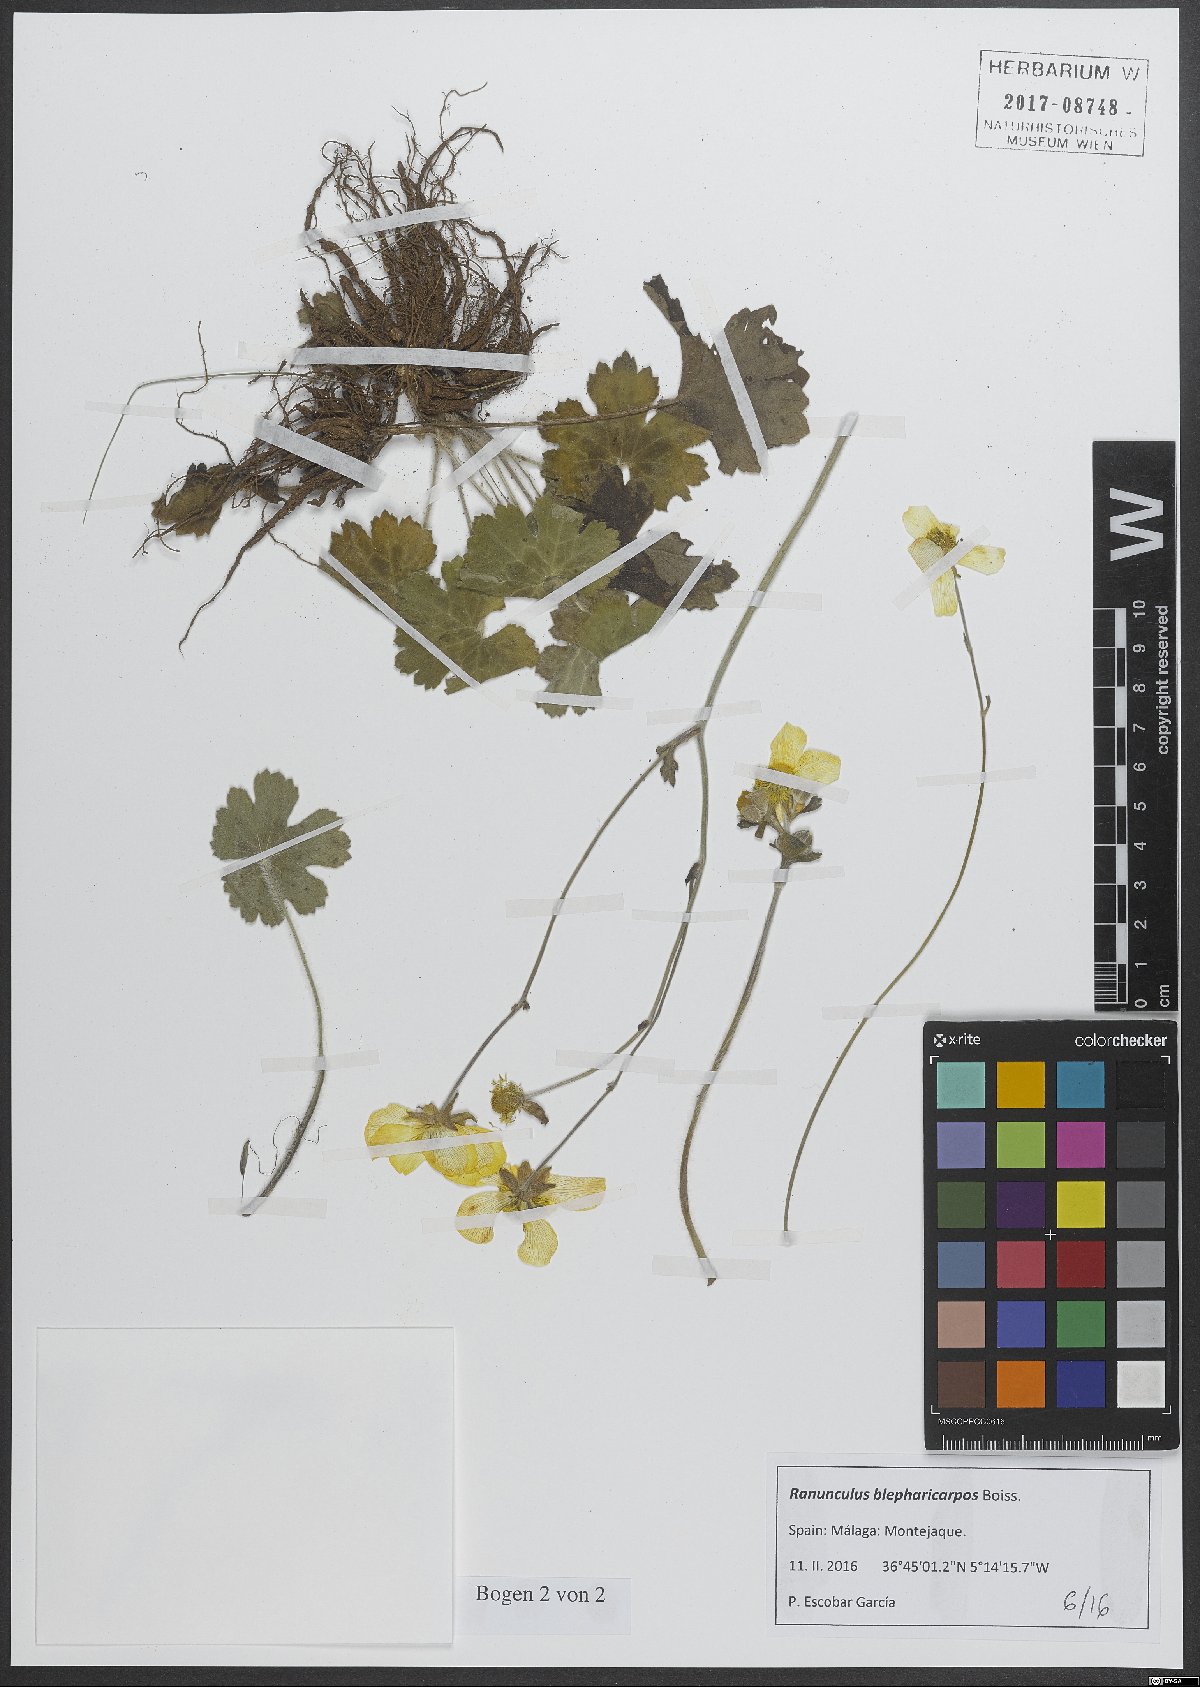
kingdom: Plantae
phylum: Tracheophyta
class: Magnoliopsida
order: Ranunculales
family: Ranunculaceae
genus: Ranunculus
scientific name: Ranunculus spicatus
